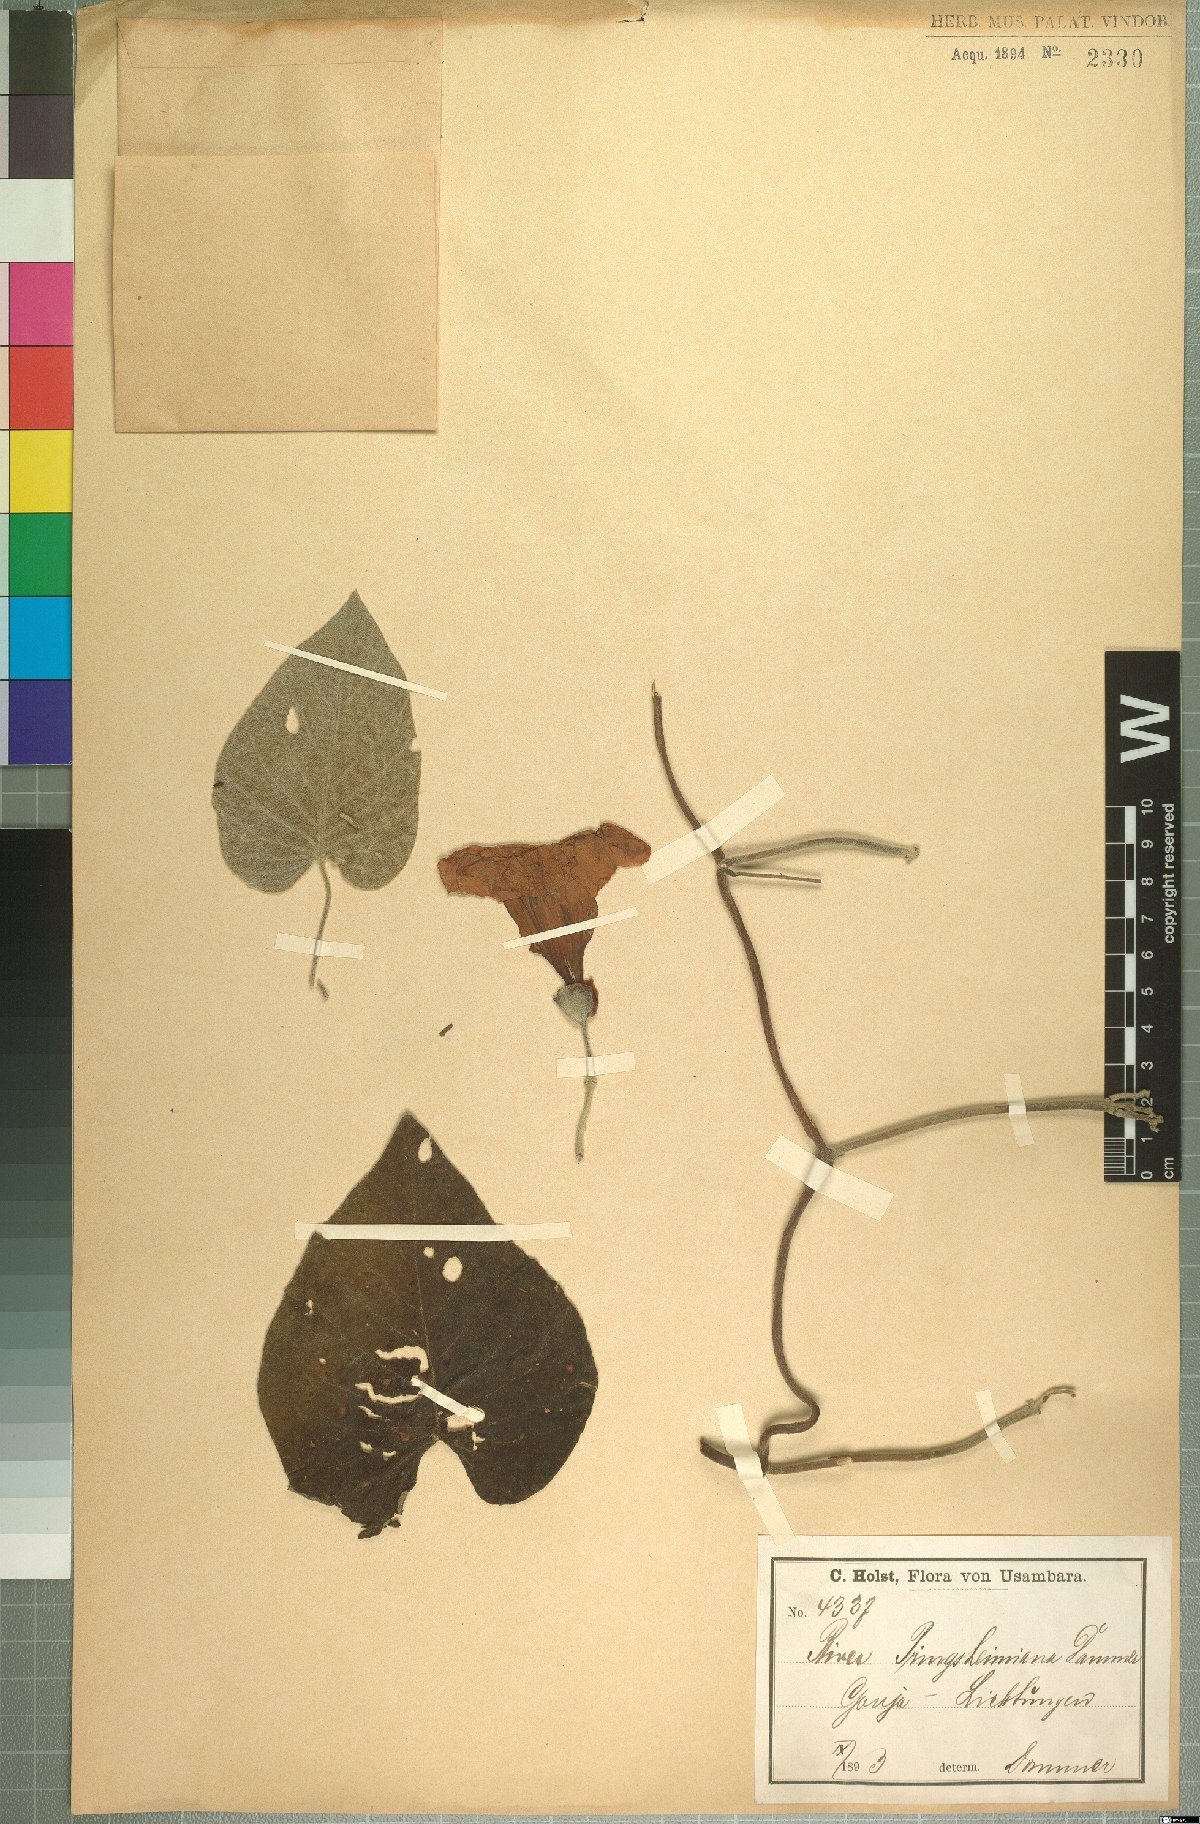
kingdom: Plantae
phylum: Tracheophyta
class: Magnoliopsida
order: Solanales
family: Convolvulaceae
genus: Stictocardia
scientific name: Stictocardia laxiflora
